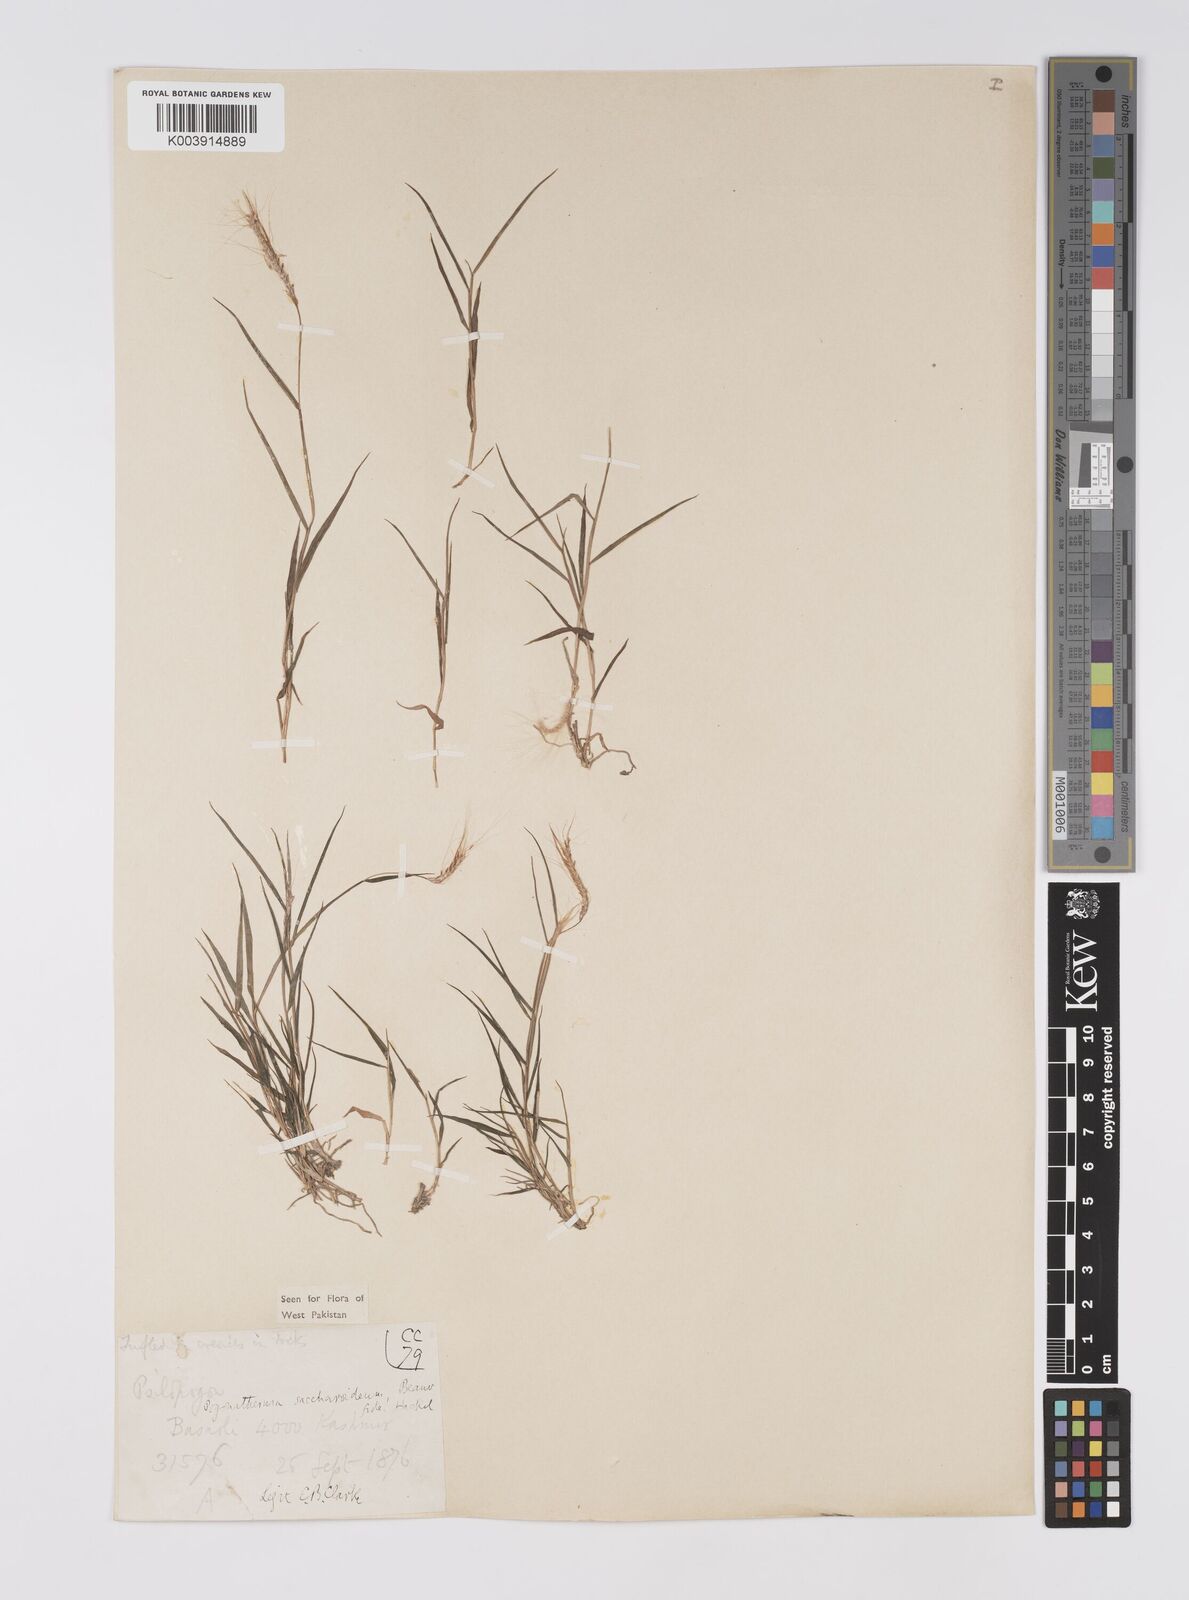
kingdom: Plantae
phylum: Tracheophyta
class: Liliopsida
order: Poales
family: Poaceae
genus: Pogonatherum
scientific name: Pogonatherum paniceum
